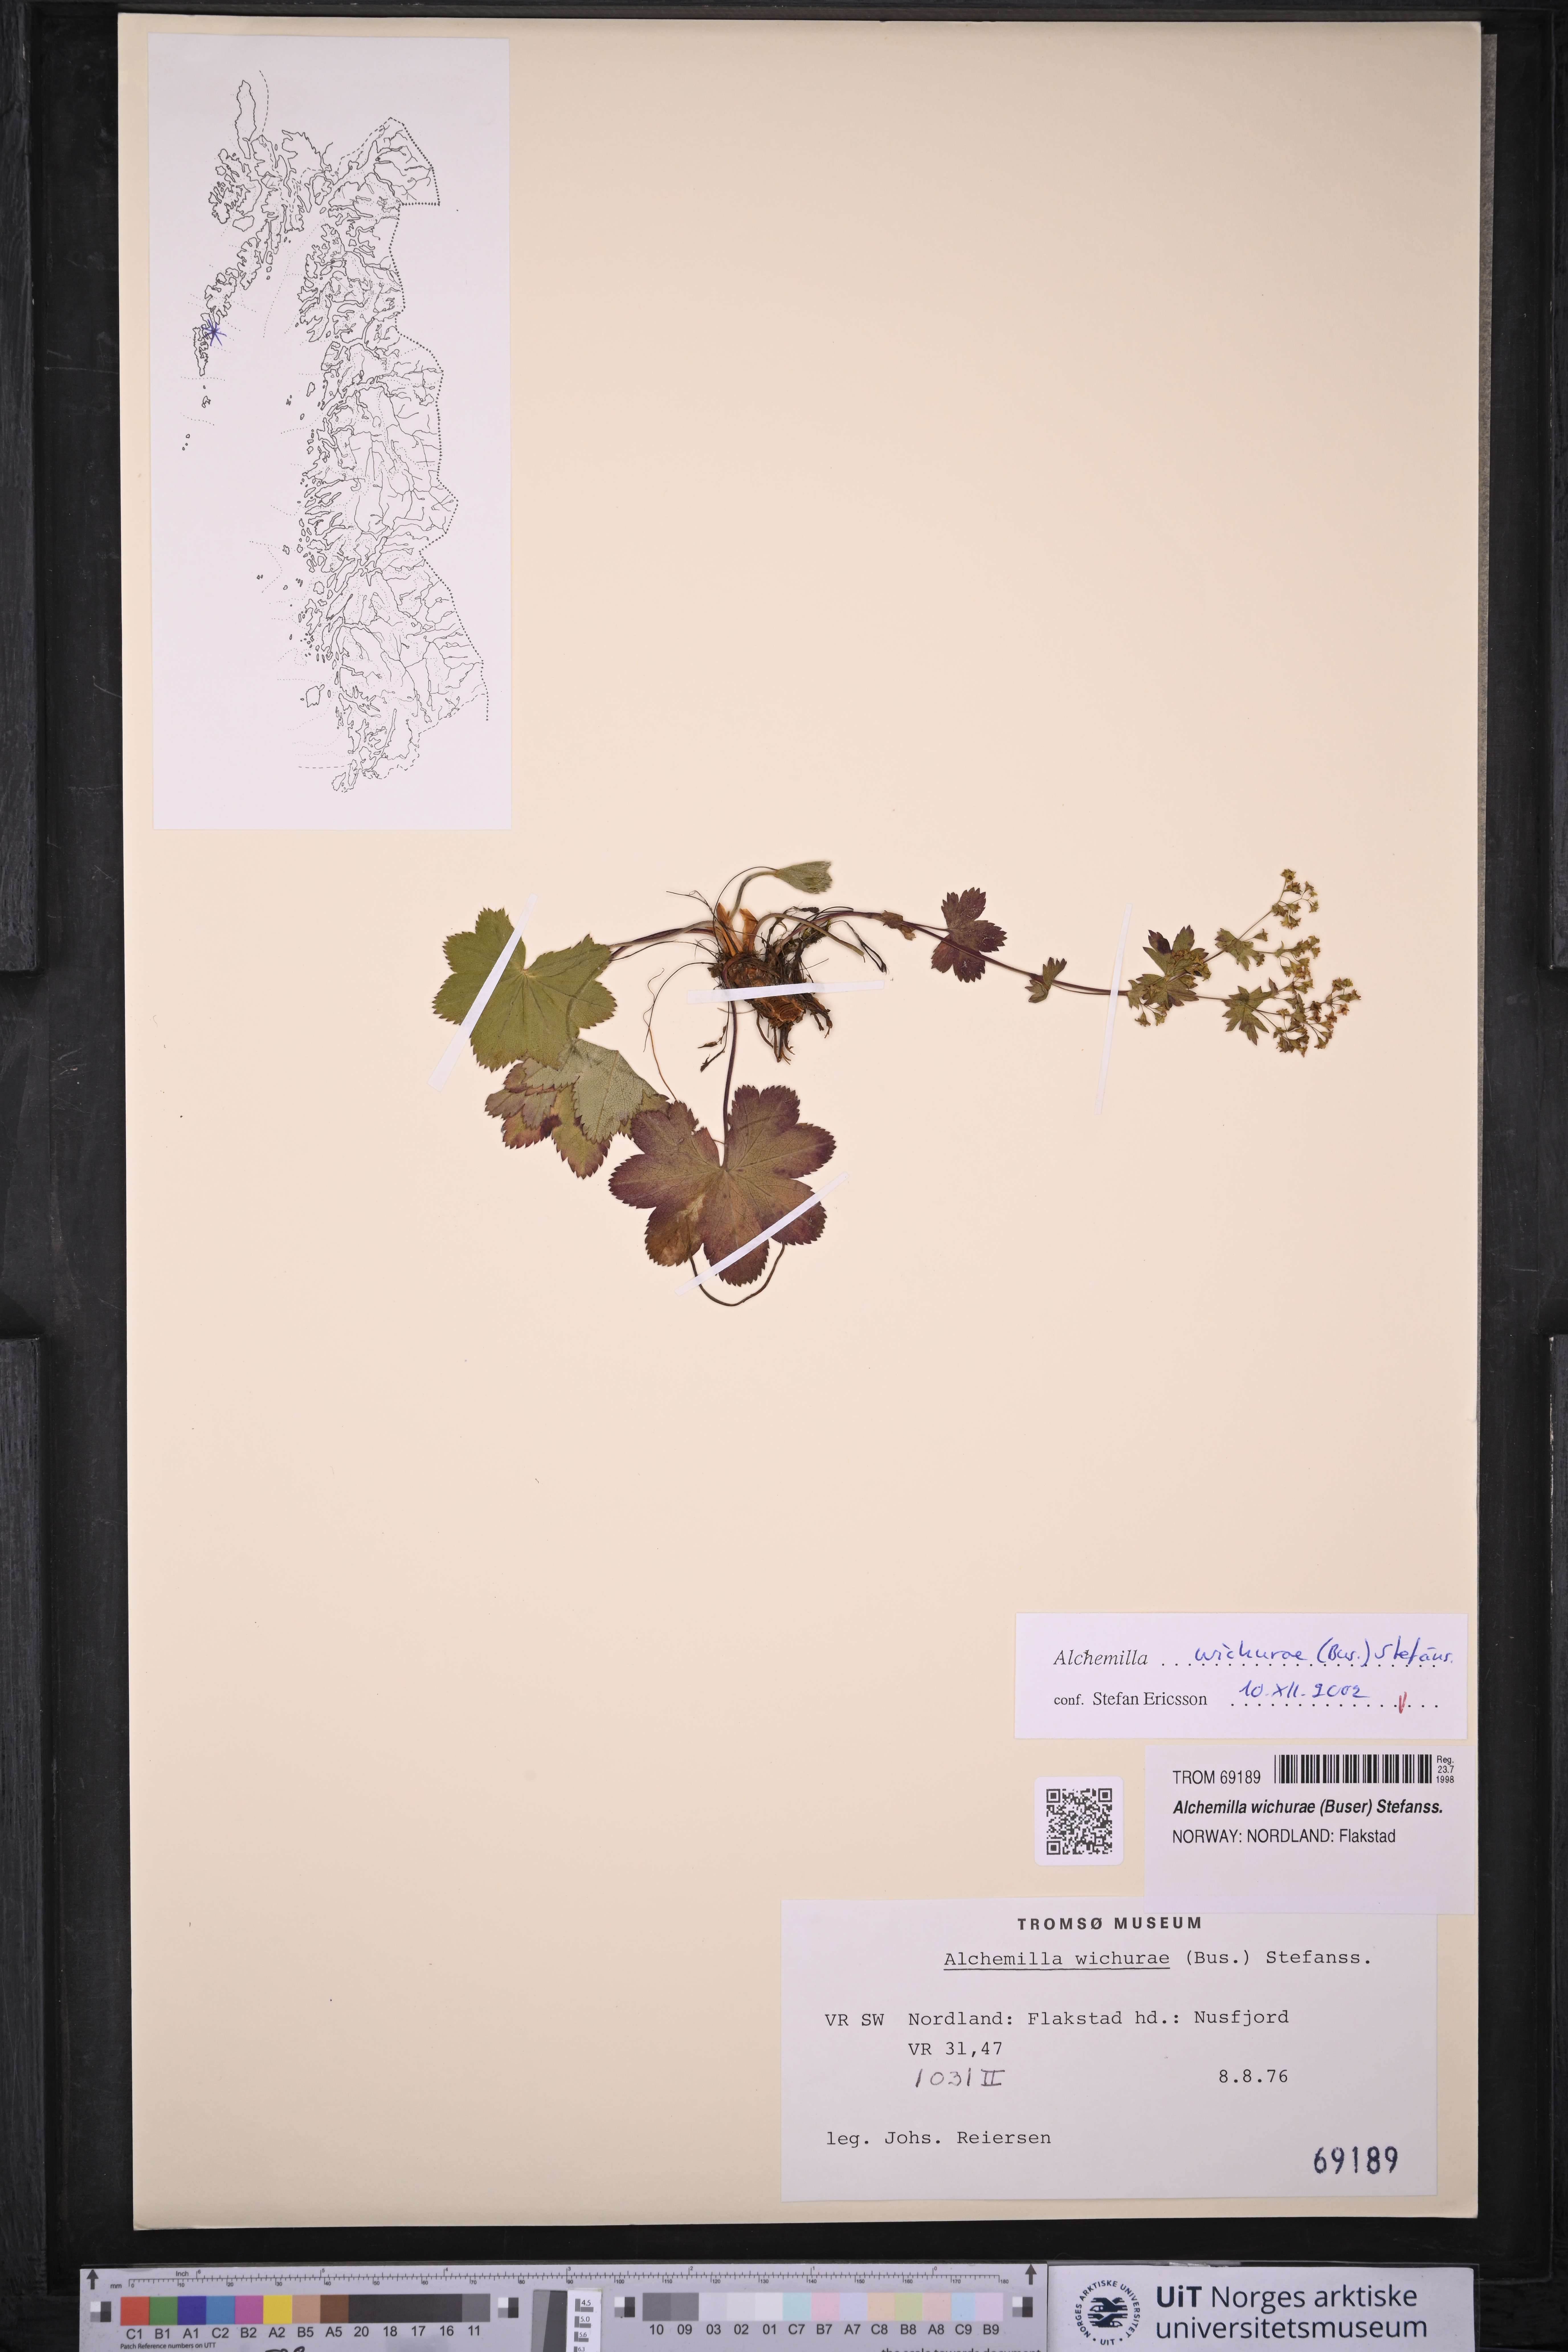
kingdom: Plantae
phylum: Tracheophyta
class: Magnoliopsida
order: Rosales
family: Rosaceae
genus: Alchemilla
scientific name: Alchemilla wichurae
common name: Rock lady's mantle
